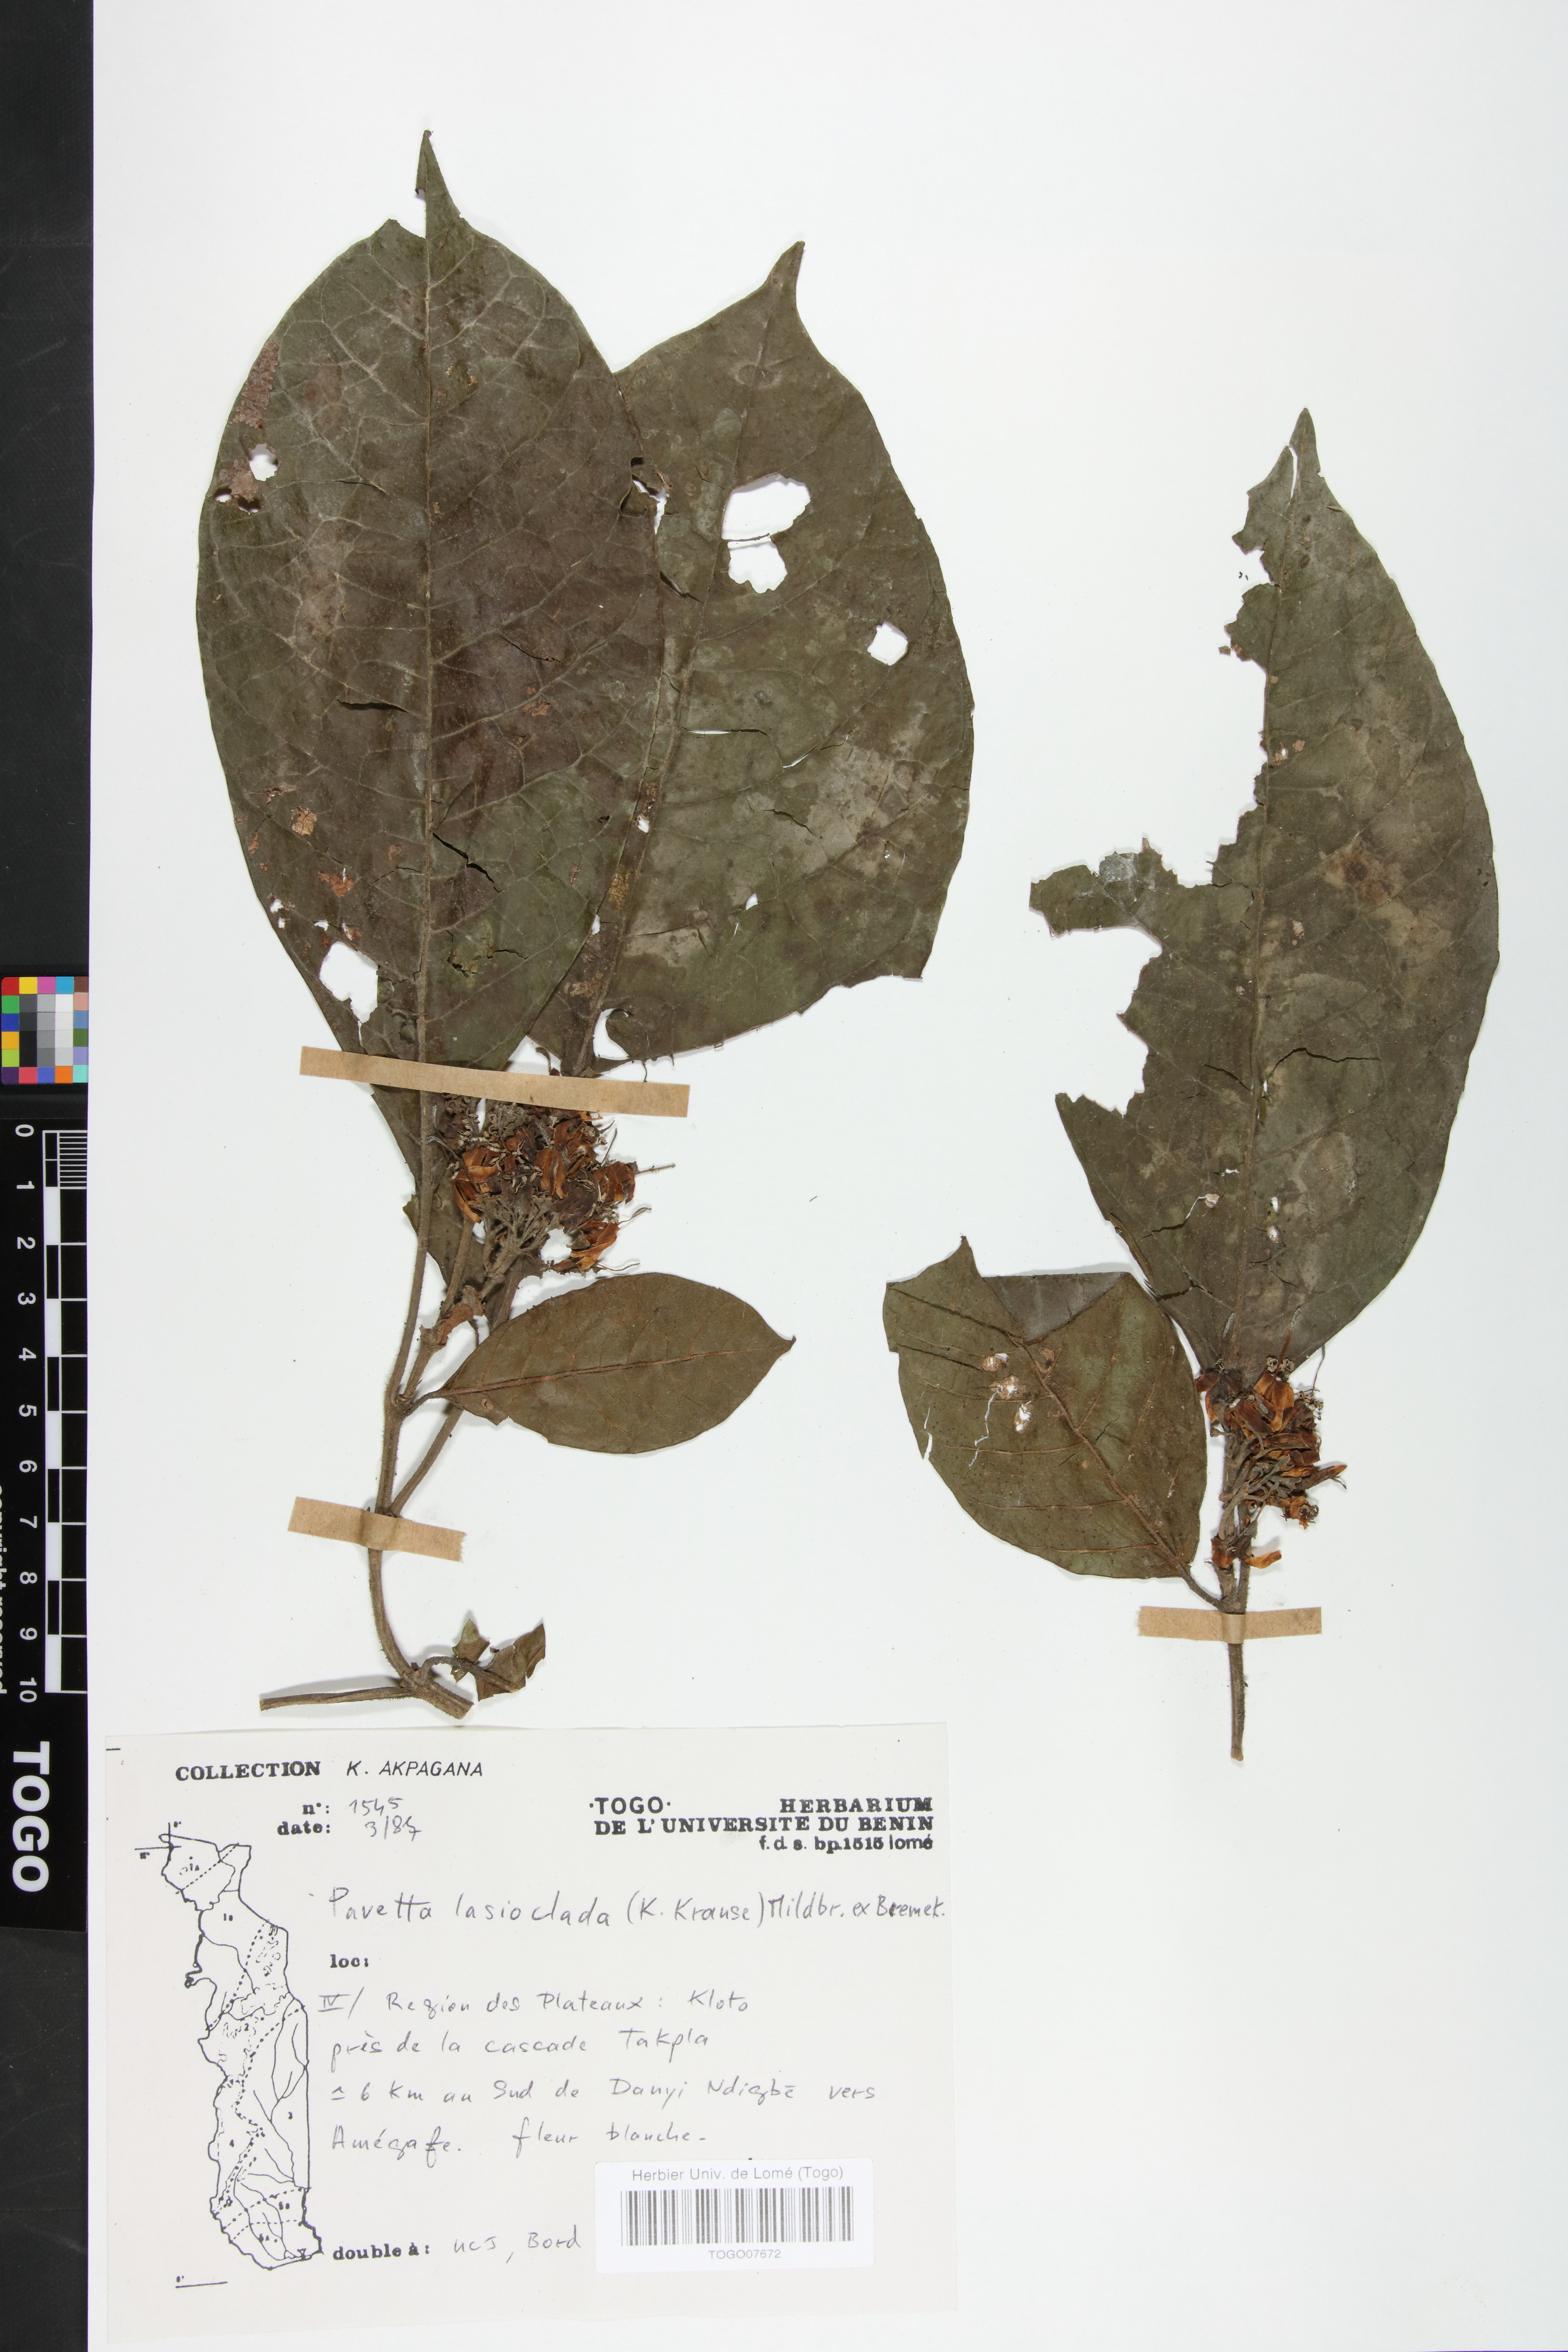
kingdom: Plantae
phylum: Tracheophyta
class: Magnoliopsida
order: Gentianales
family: Rubiaceae
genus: Pavetta
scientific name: Pavetta lasioclada
